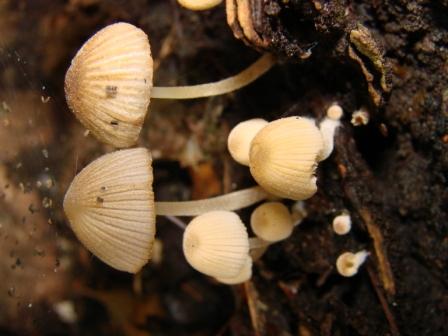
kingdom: Fungi
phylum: Basidiomycota
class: Agaricomycetes
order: Agaricales
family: Psathyrellaceae
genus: Coprinellus
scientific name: Coprinellus disseminatus
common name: bredsået blækhat
